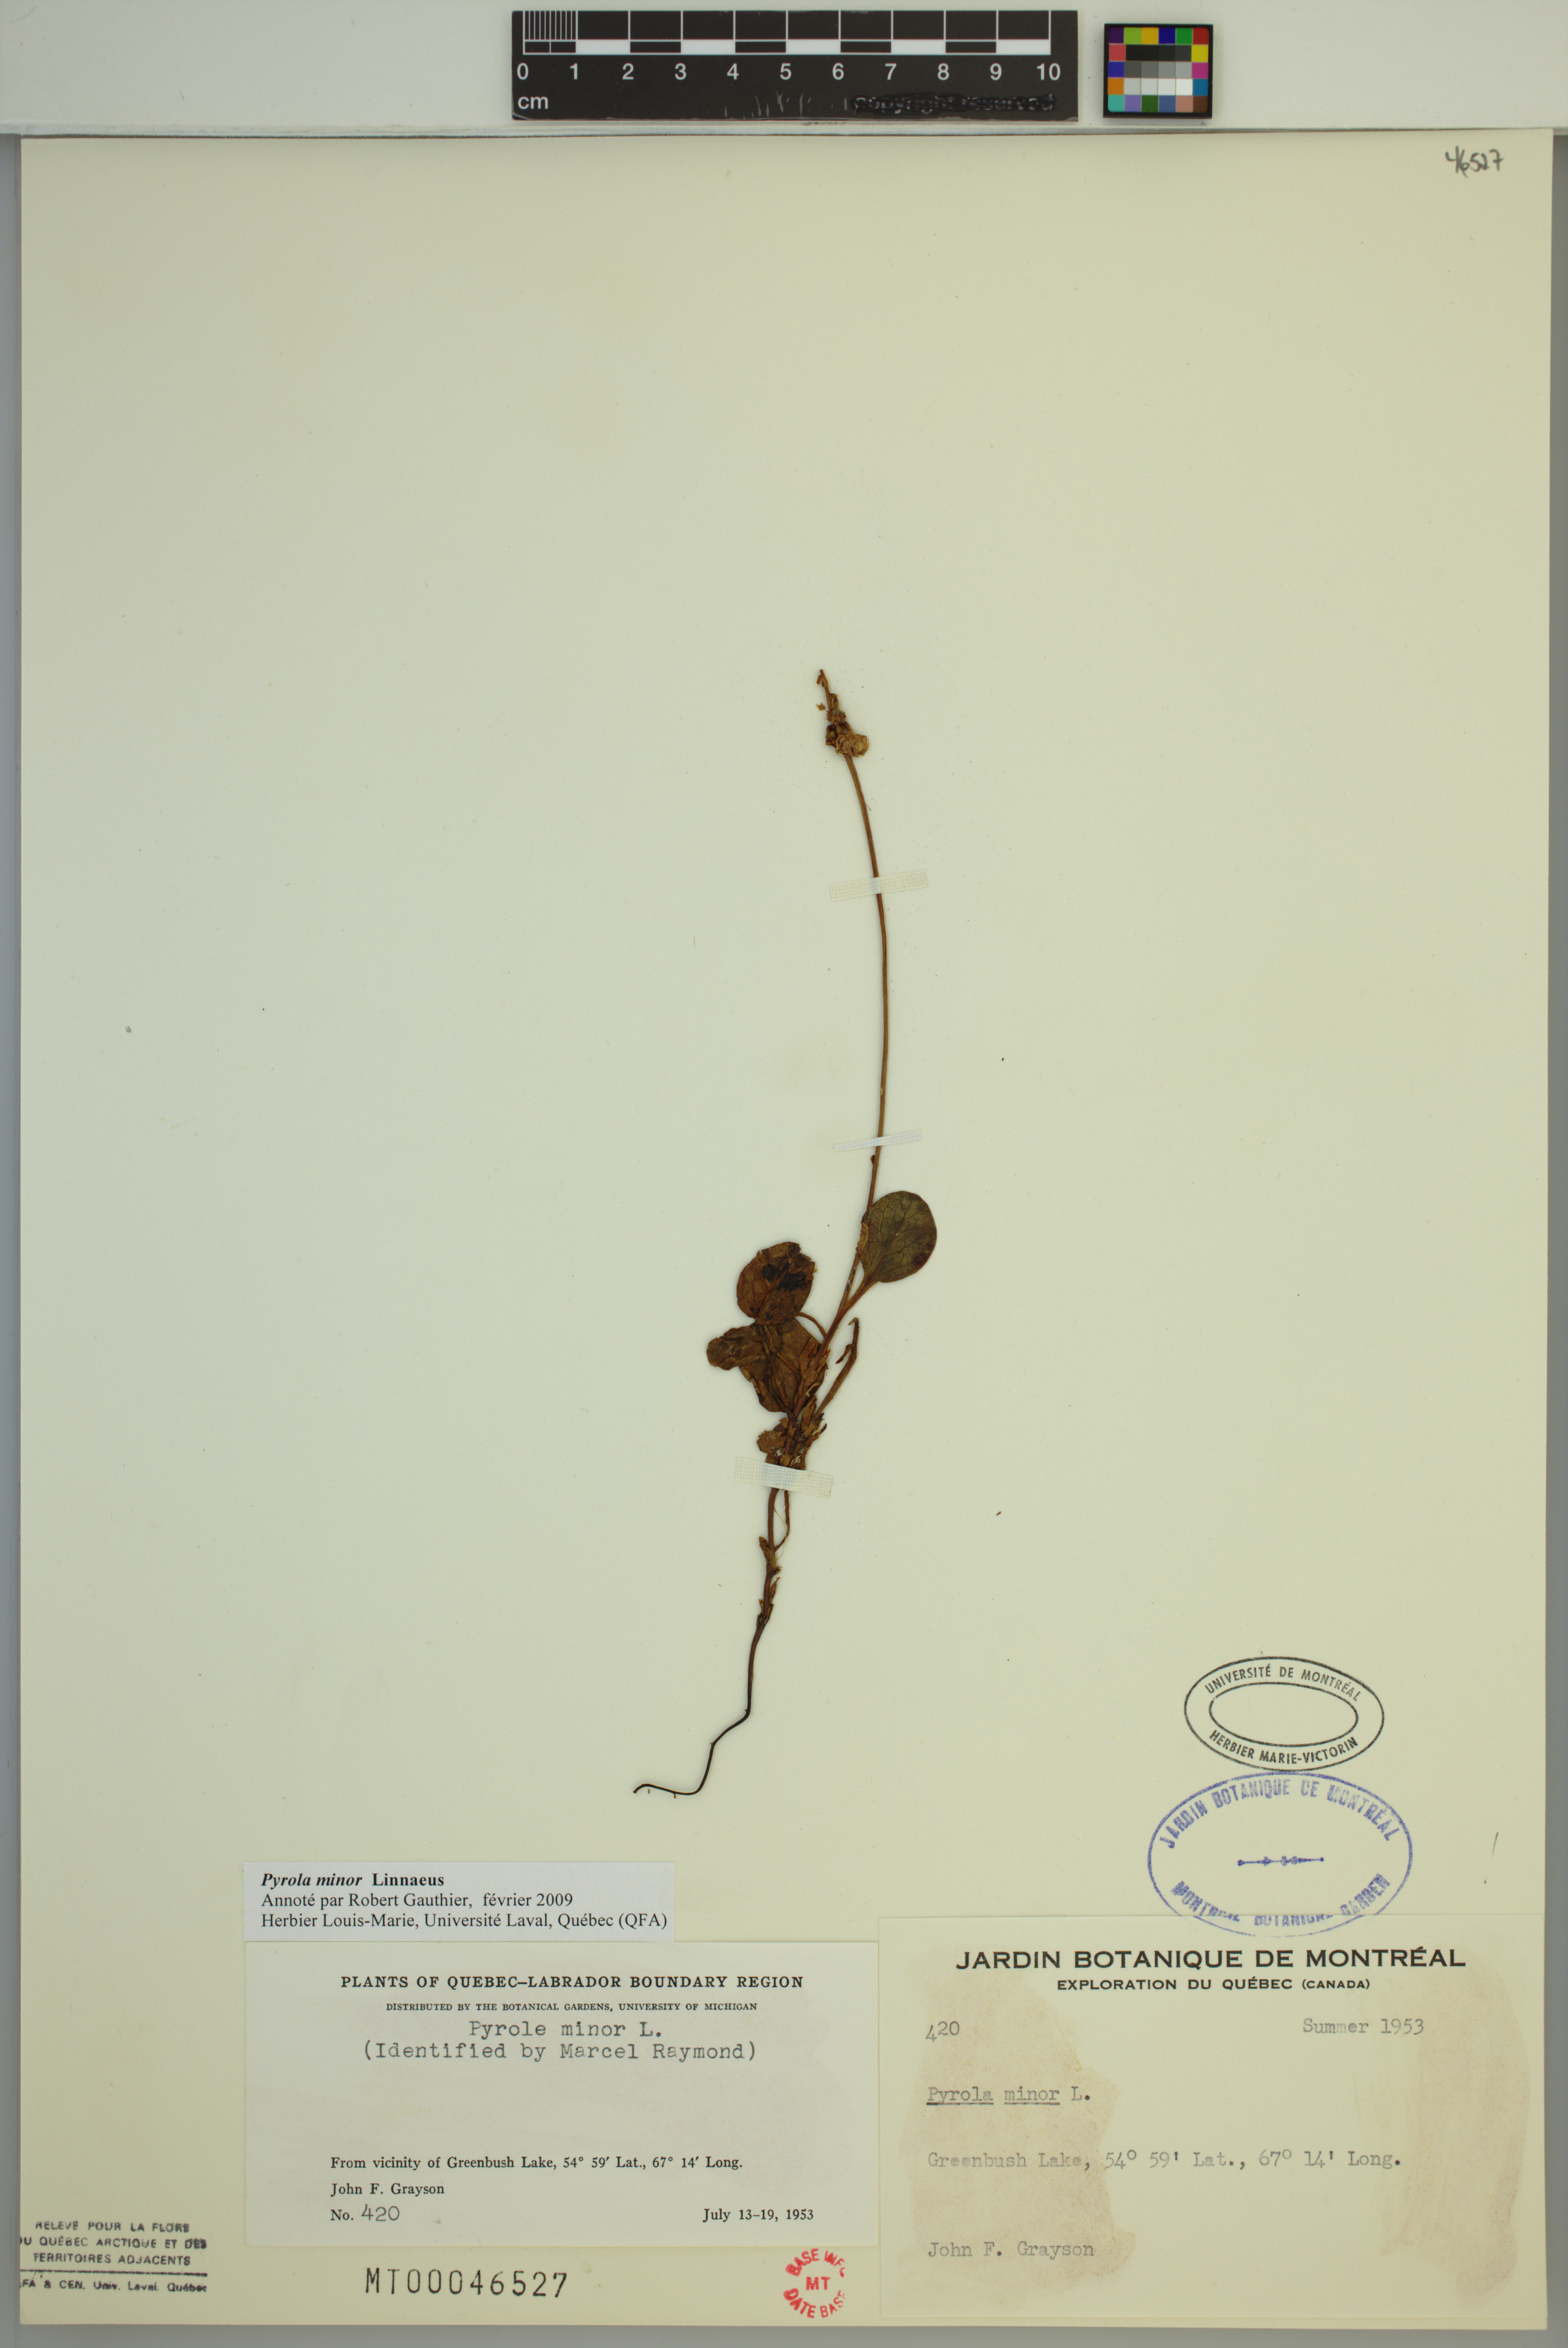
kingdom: Plantae
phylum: Tracheophyta
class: Magnoliopsida
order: Ericales
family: Ericaceae
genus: Pyrola
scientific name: Pyrola minor
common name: Common wintergreen
